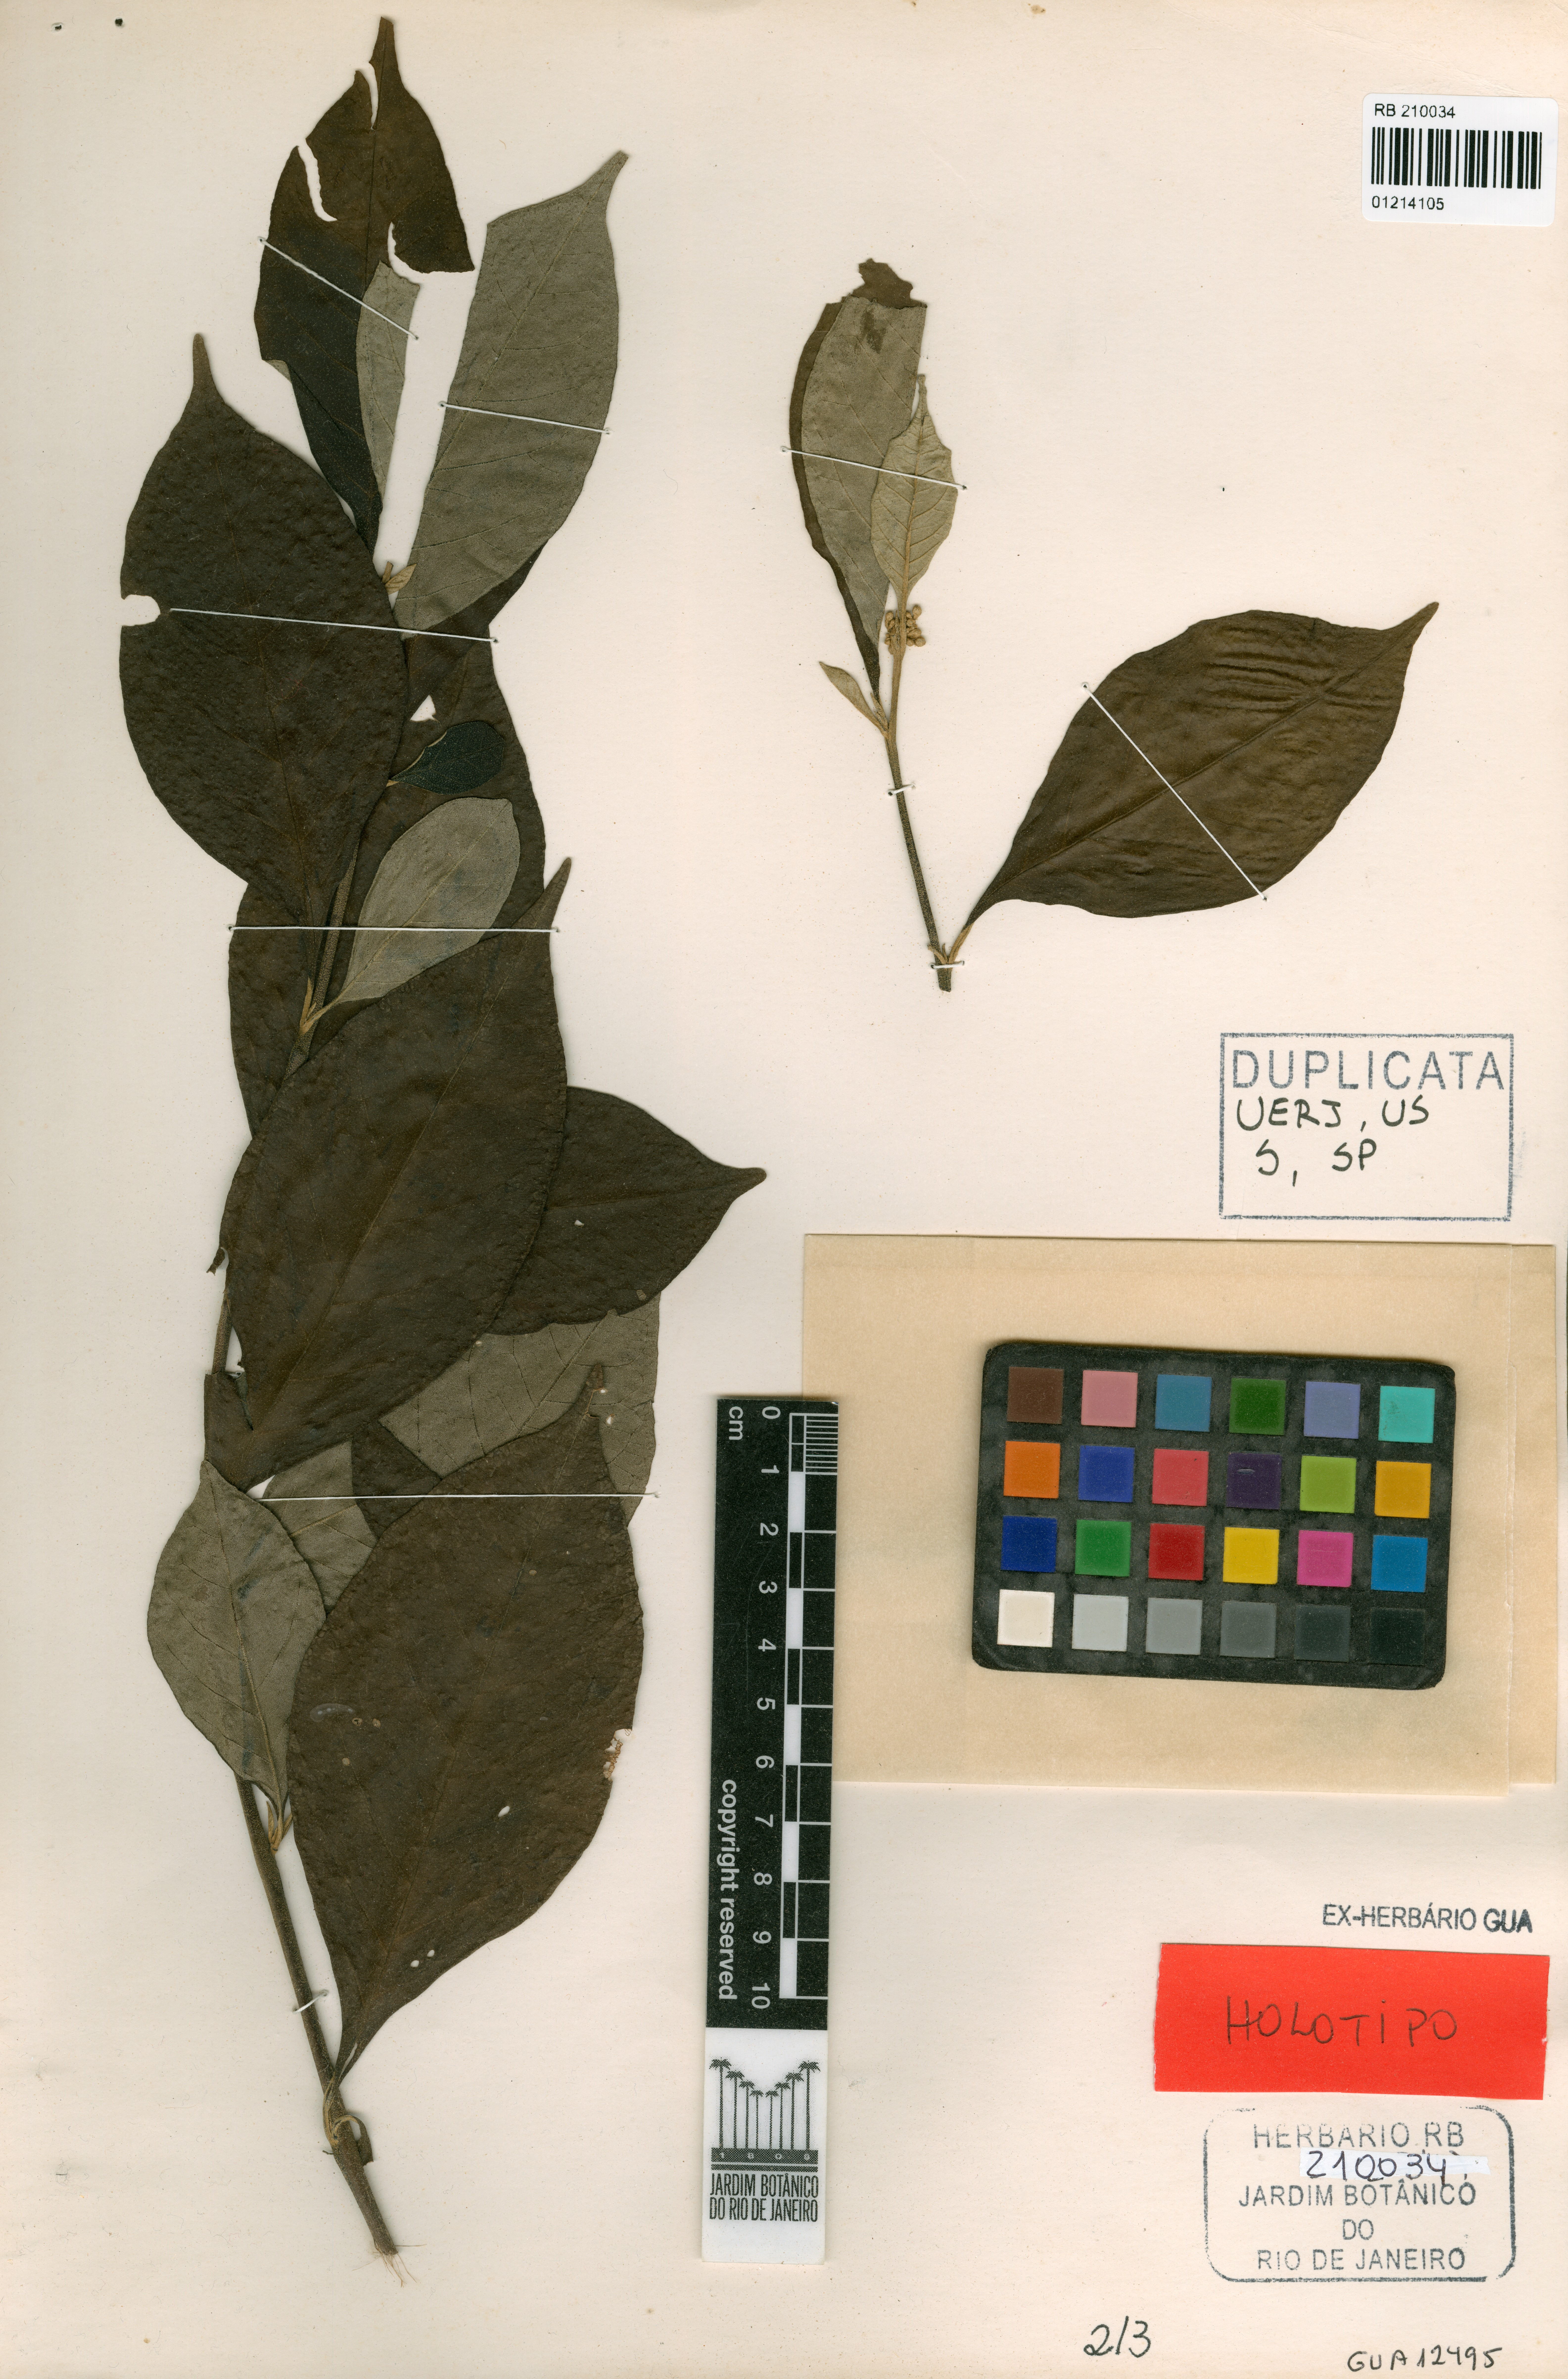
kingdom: Plantae
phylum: Tracheophyta
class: Magnoliopsida
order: Solanales
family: Solanaceae
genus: Solanum
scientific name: Solanum carautae
